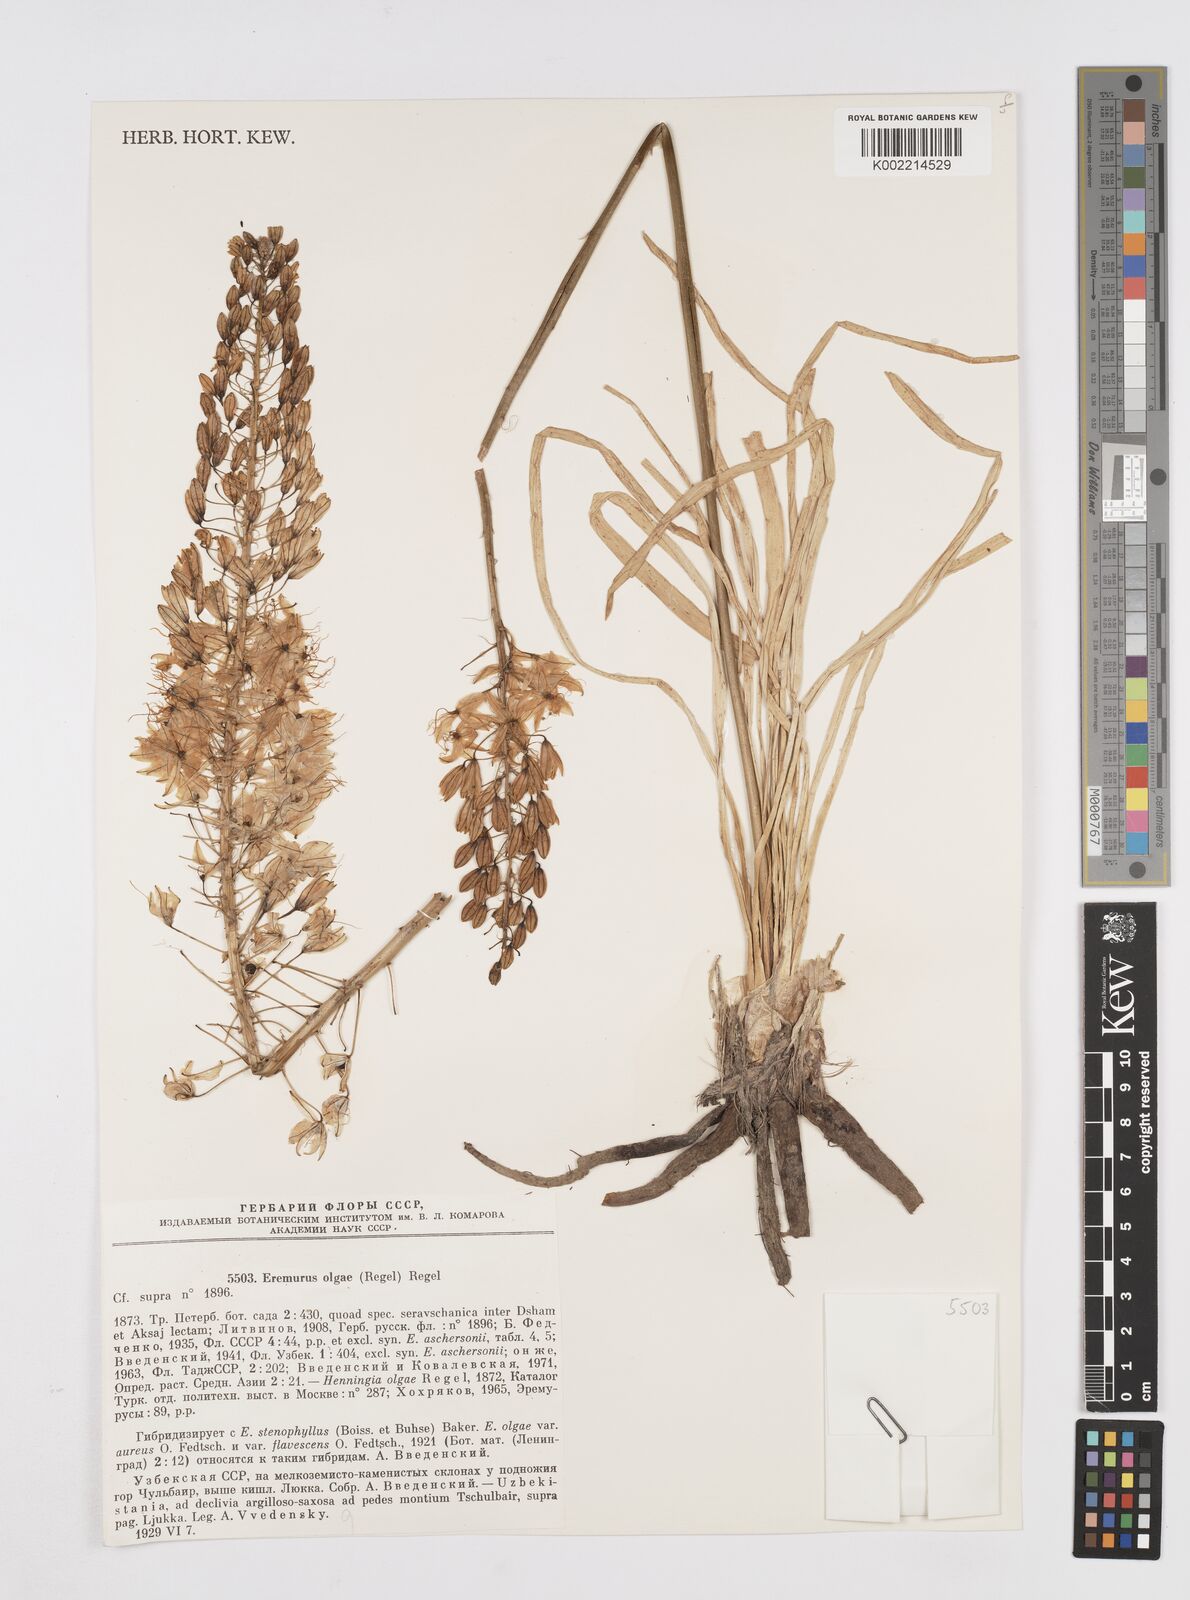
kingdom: Plantae
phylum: Tracheophyta
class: Liliopsida
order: Asparagales
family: Asphodelaceae
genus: Eremurus
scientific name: Eremurus olgae
